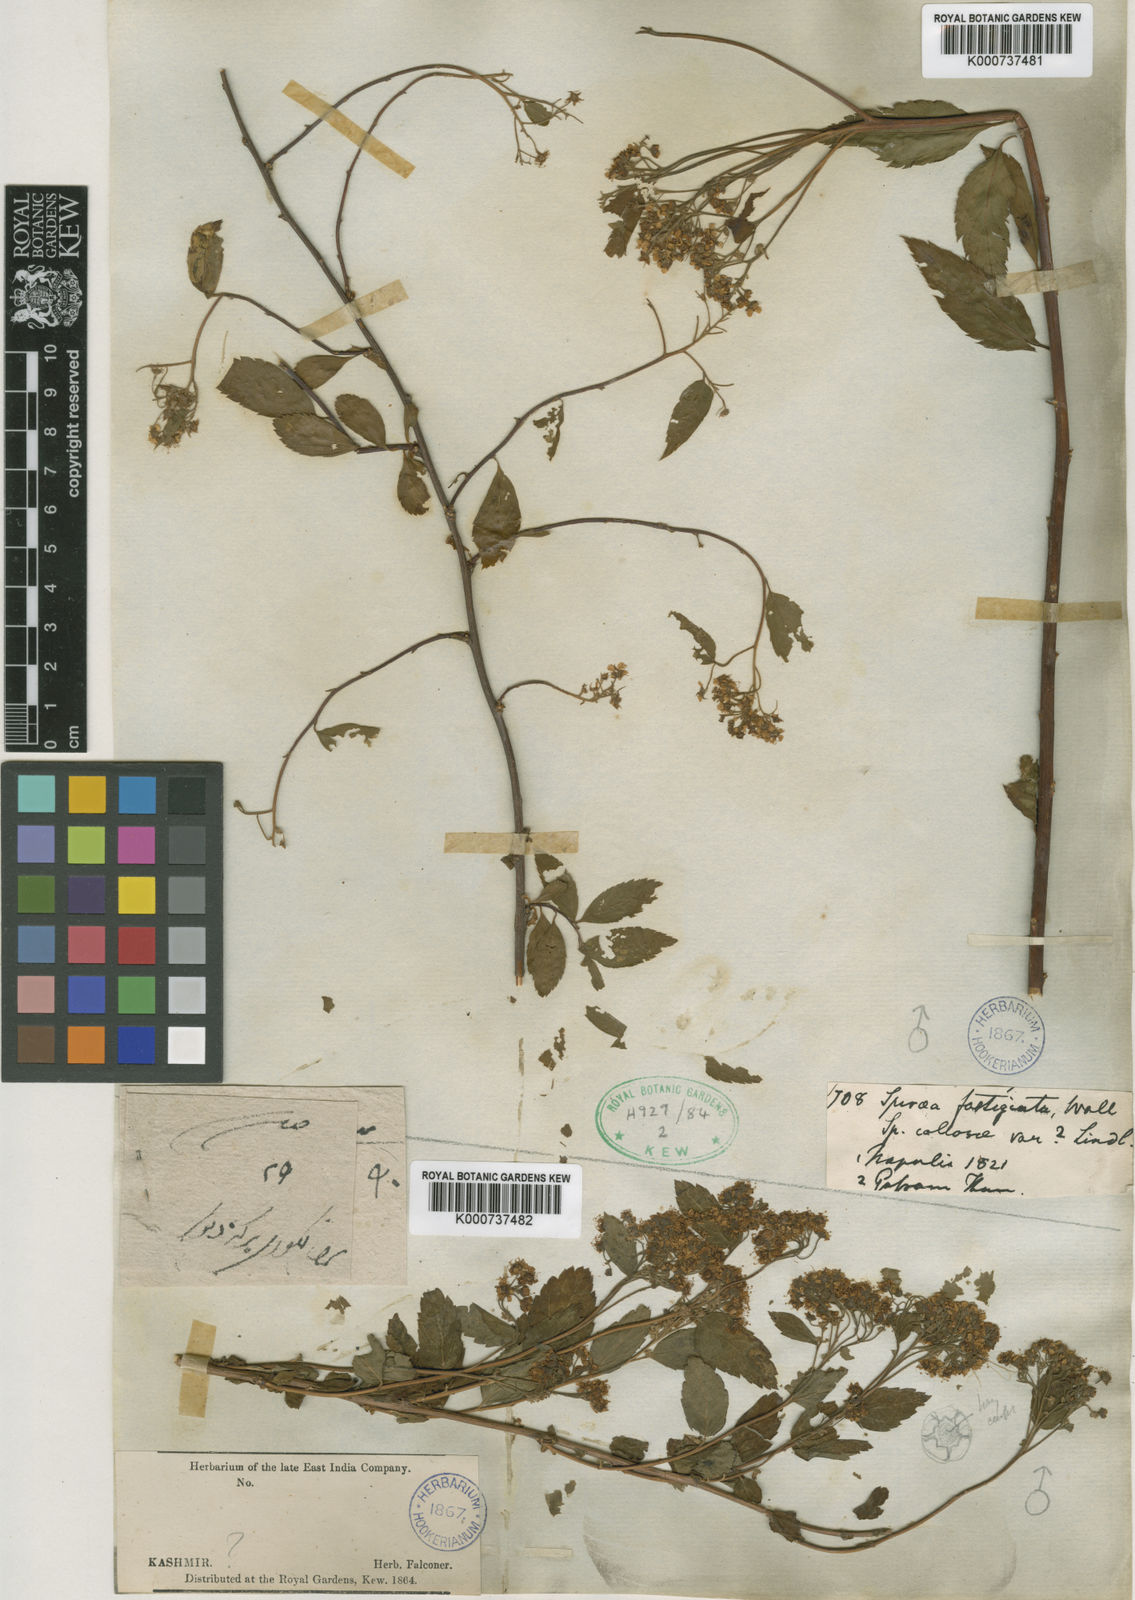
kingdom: Plantae
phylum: Tracheophyta
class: Magnoliopsida
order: Rosales
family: Rosaceae
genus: Spiraea
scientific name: Spiraea
